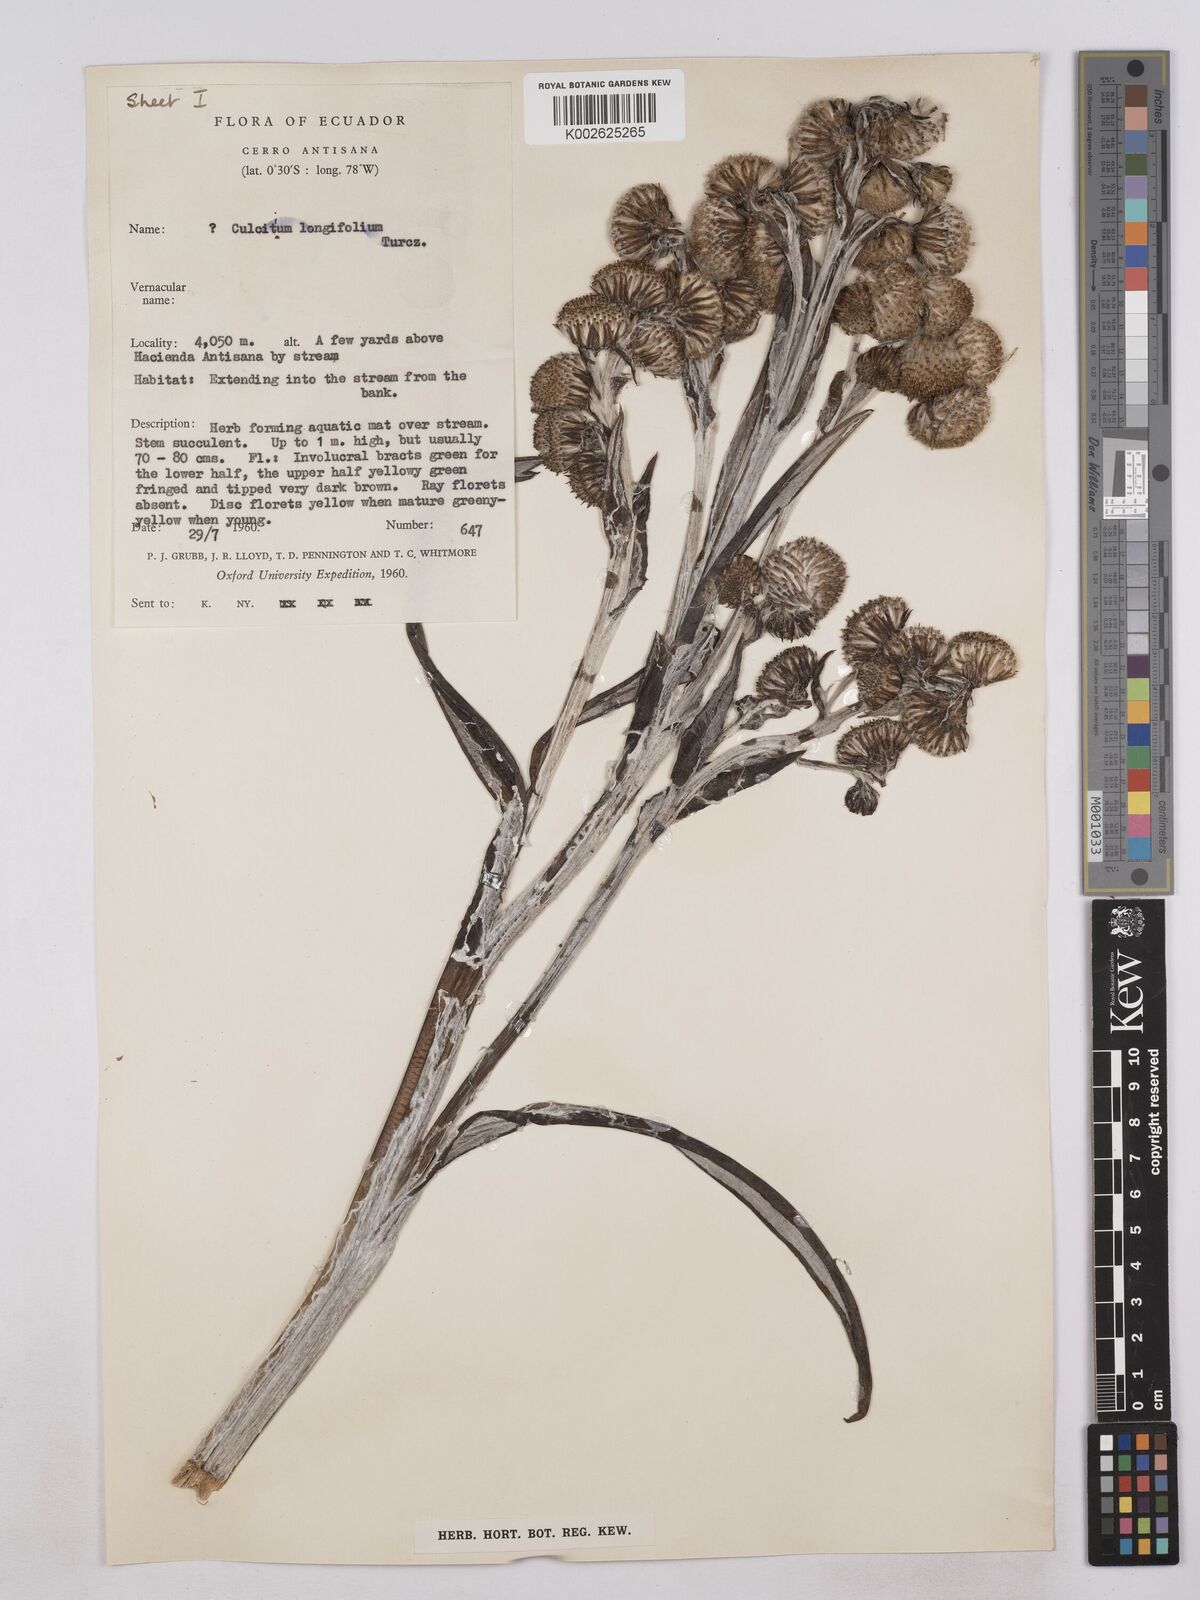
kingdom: Plantae
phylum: Tracheophyta
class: Magnoliopsida
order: Asterales
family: Asteraceae
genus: Senecio
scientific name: Senecio comosus
